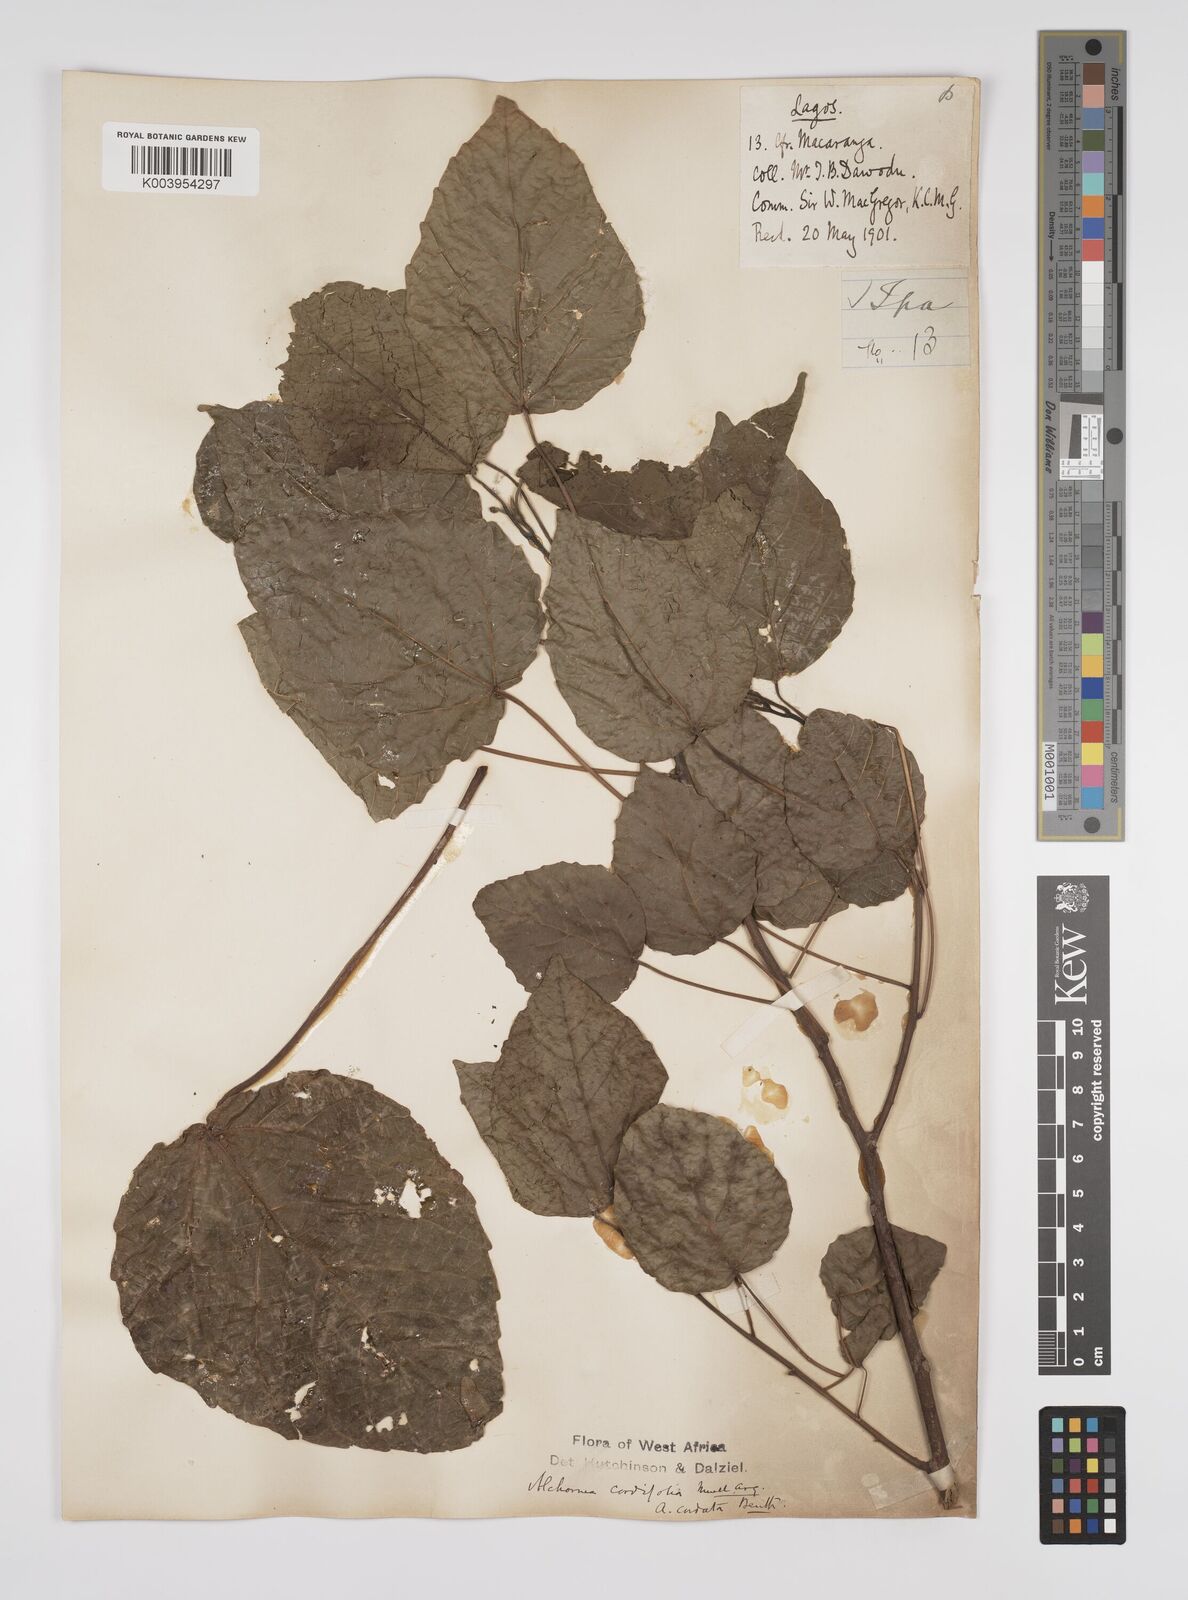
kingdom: Plantae
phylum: Tracheophyta
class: Magnoliopsida
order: Malpighiales
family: Euphorbiaceae
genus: Alchornea
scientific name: Alchornea cordifolia
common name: Christmasbush
